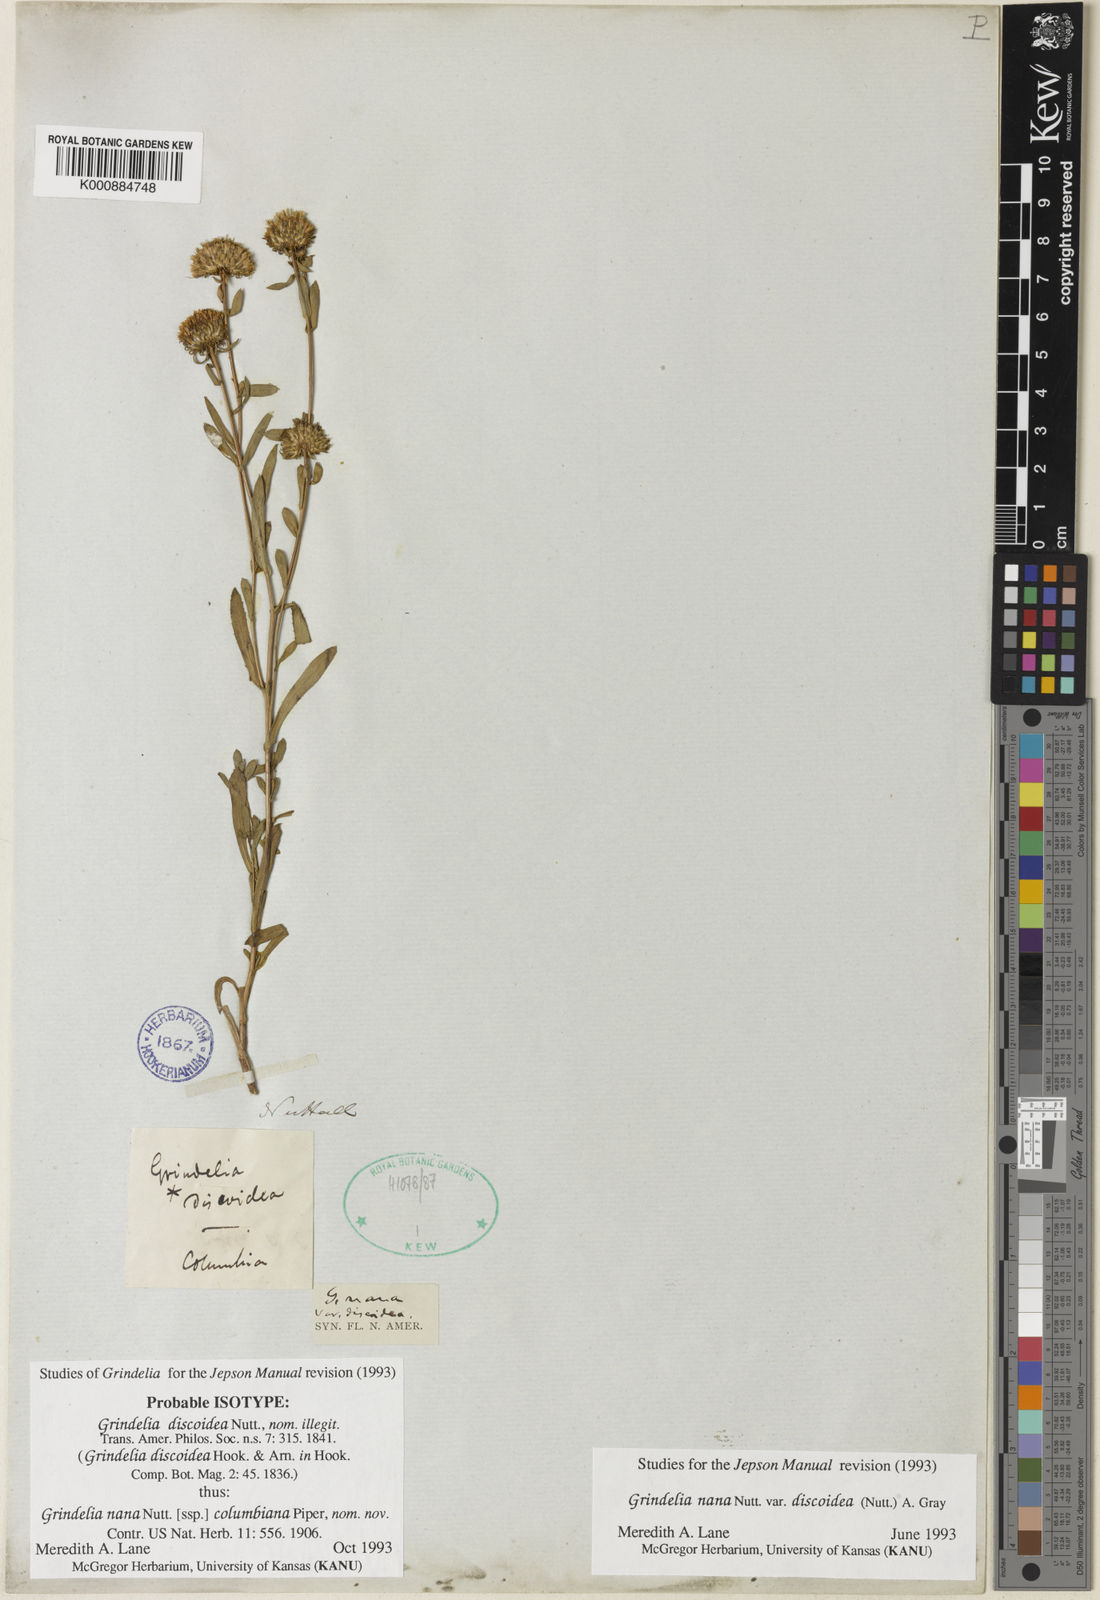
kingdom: Plantae
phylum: Tracheophyta
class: Magnoliopsida
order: Asterales
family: Asteraceae
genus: Grindelia
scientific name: Grindelia hirsutula
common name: Hairy gumweed
